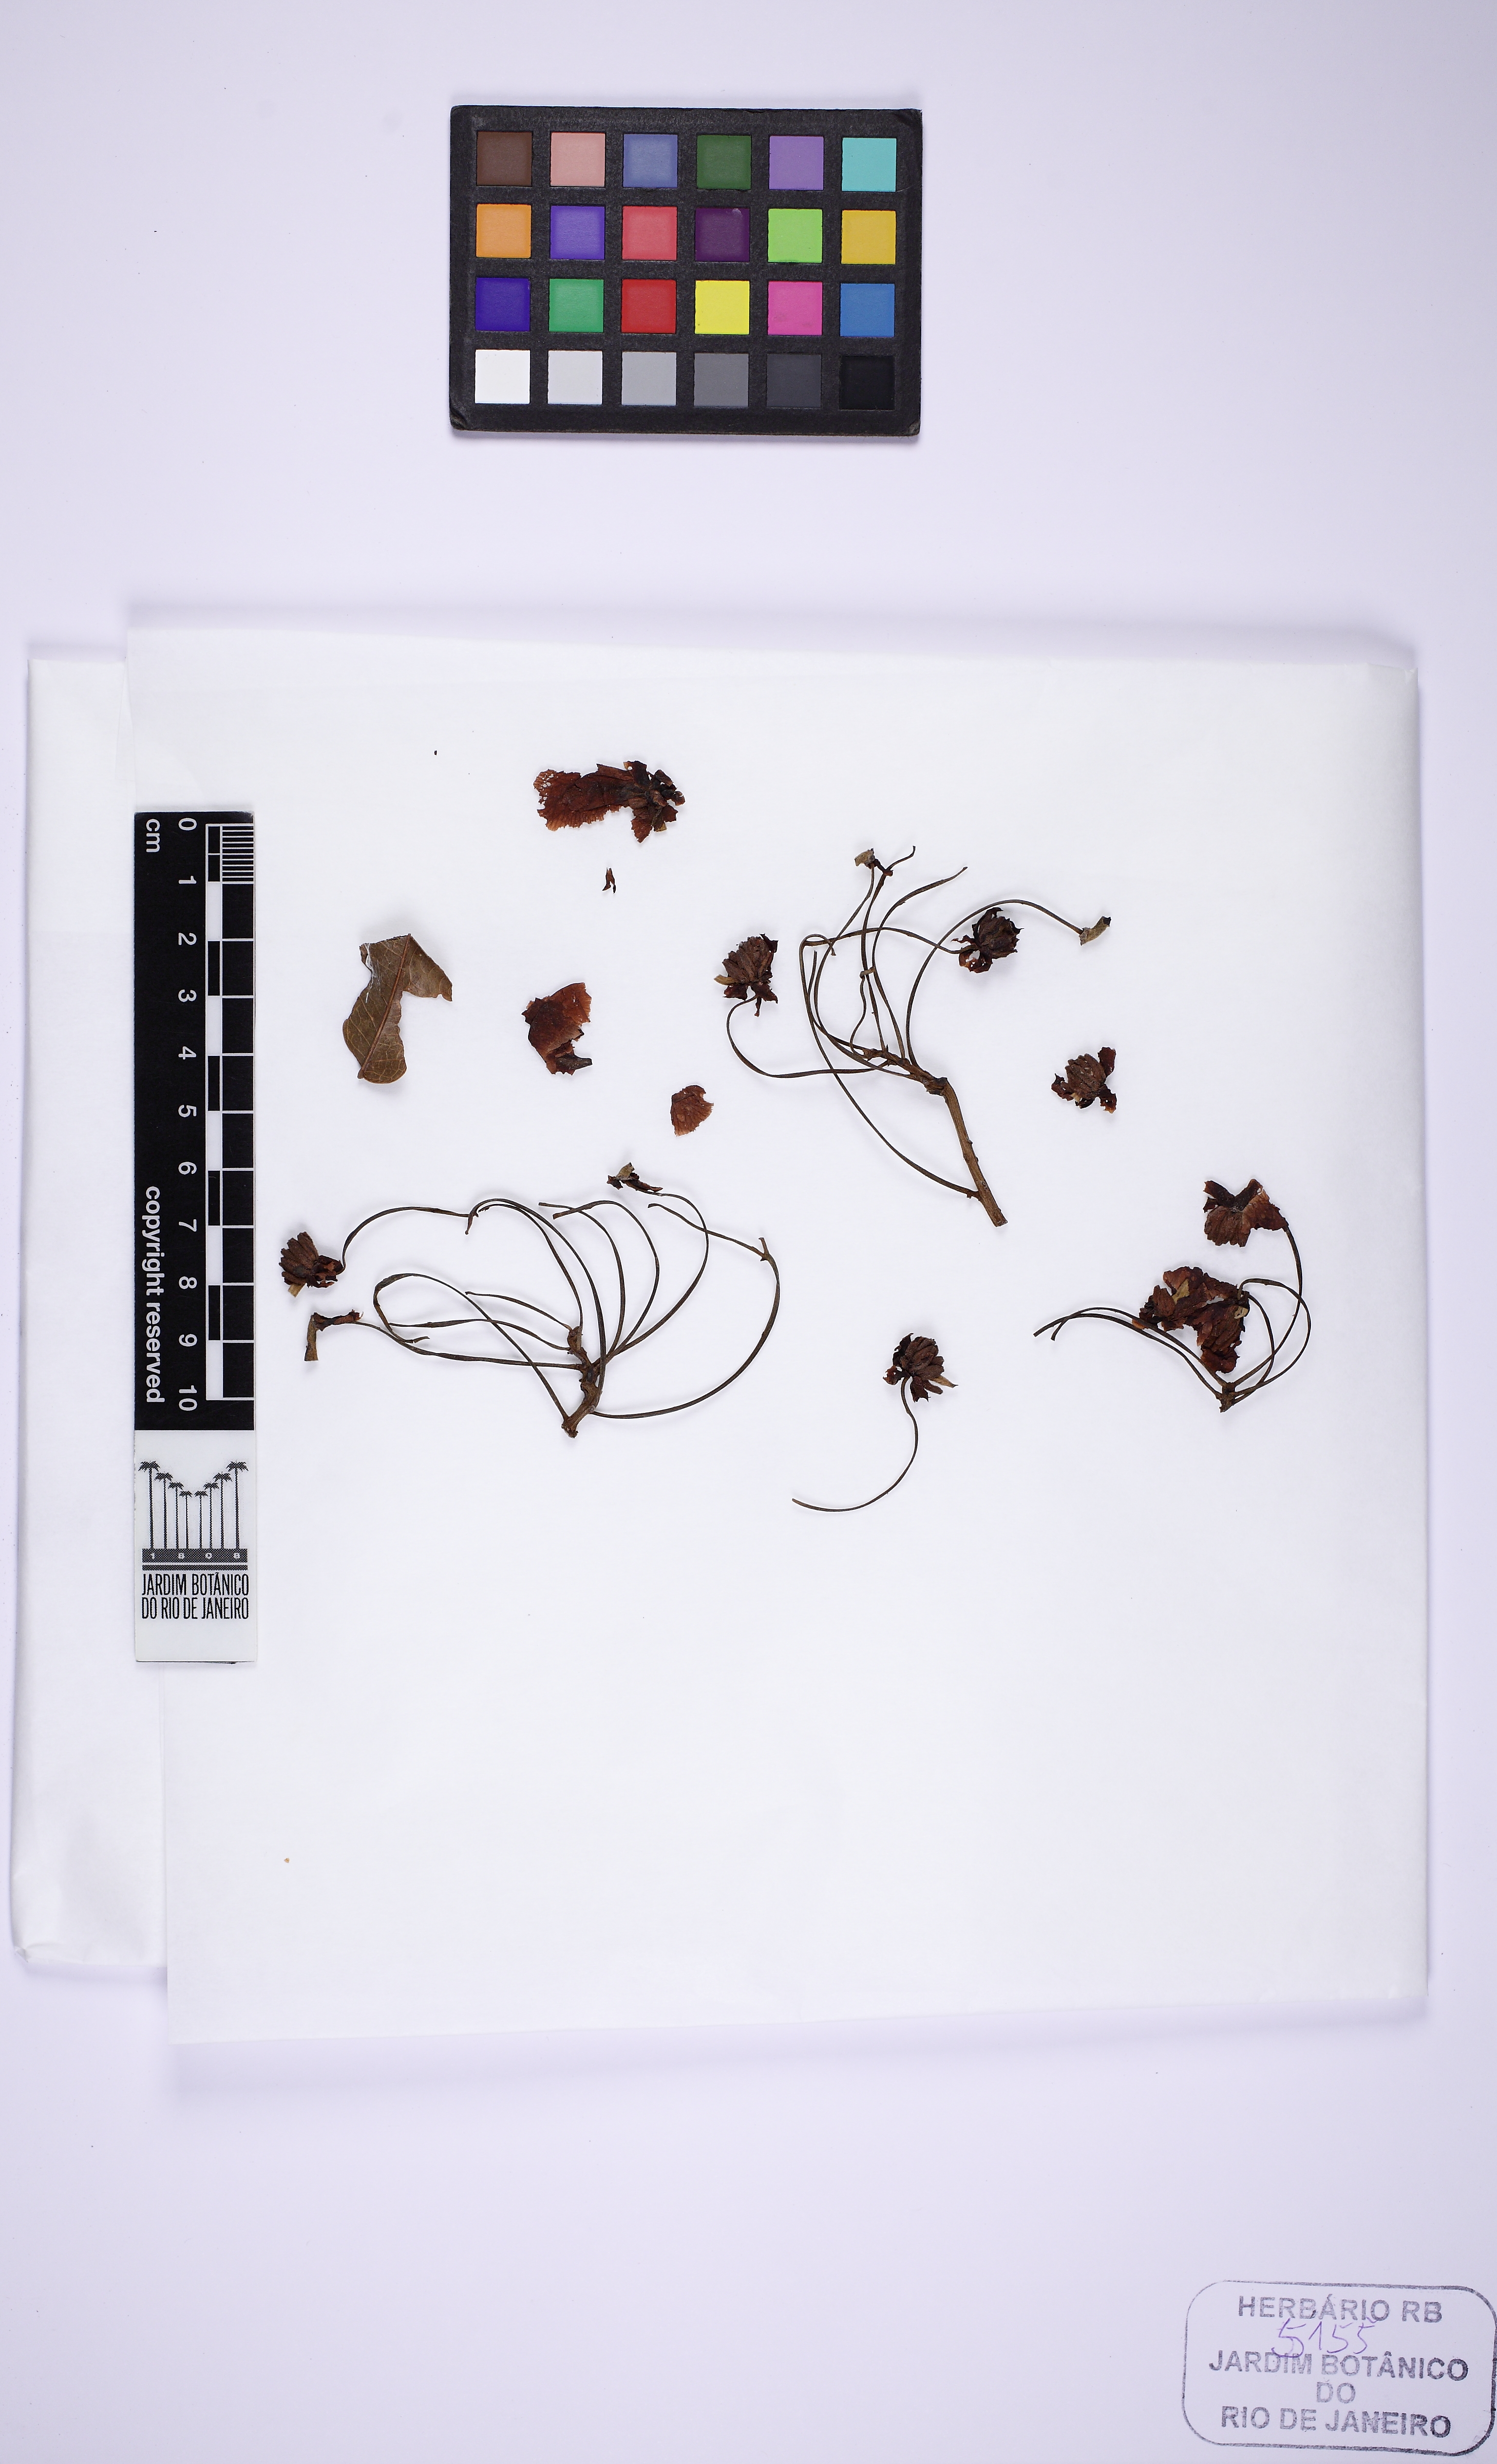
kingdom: Plantae
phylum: Tracheophyta
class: Magnoliopsida
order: Fabales
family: Fabaceae
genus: Chamaecrista
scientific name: Chamaecrista ensiformis
